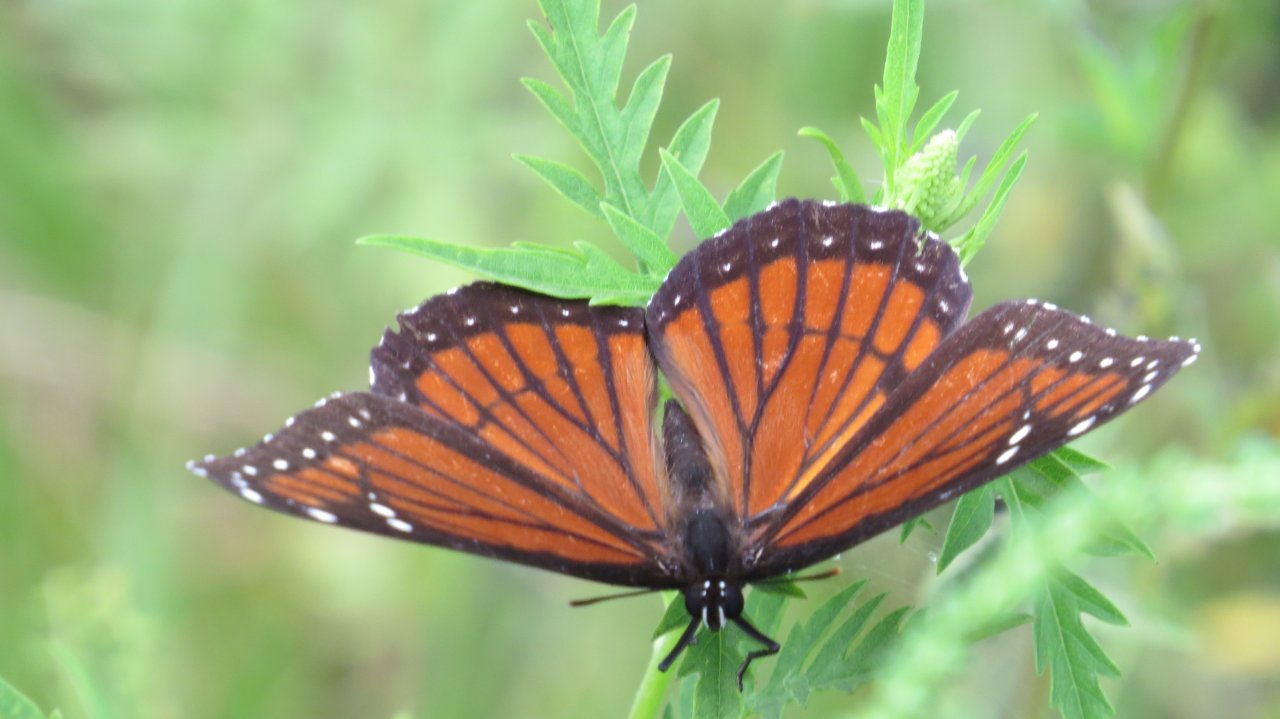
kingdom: Animalia
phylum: Arthropoda
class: Insecta
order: Lepidoptera
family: Nymphalidae
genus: Limenitis
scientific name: Limenitis archippus
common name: Viceroy
